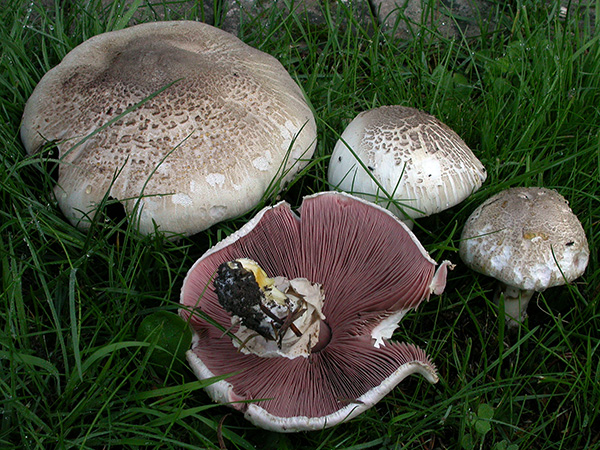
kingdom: Fungi
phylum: Basidiomycota
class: Agaricomycetes
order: Agaricales
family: Agaricaceae
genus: Agaricus
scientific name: Agaricus xanthodermus
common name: karbol-champignon
